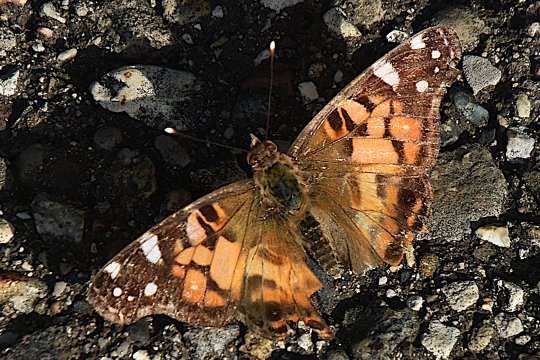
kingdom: Animalia
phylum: Arthropoda
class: Insecta
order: Lepidoptera
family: Nymphalidae
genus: Vanessa
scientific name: Vanessa virginiensis
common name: American Lady
